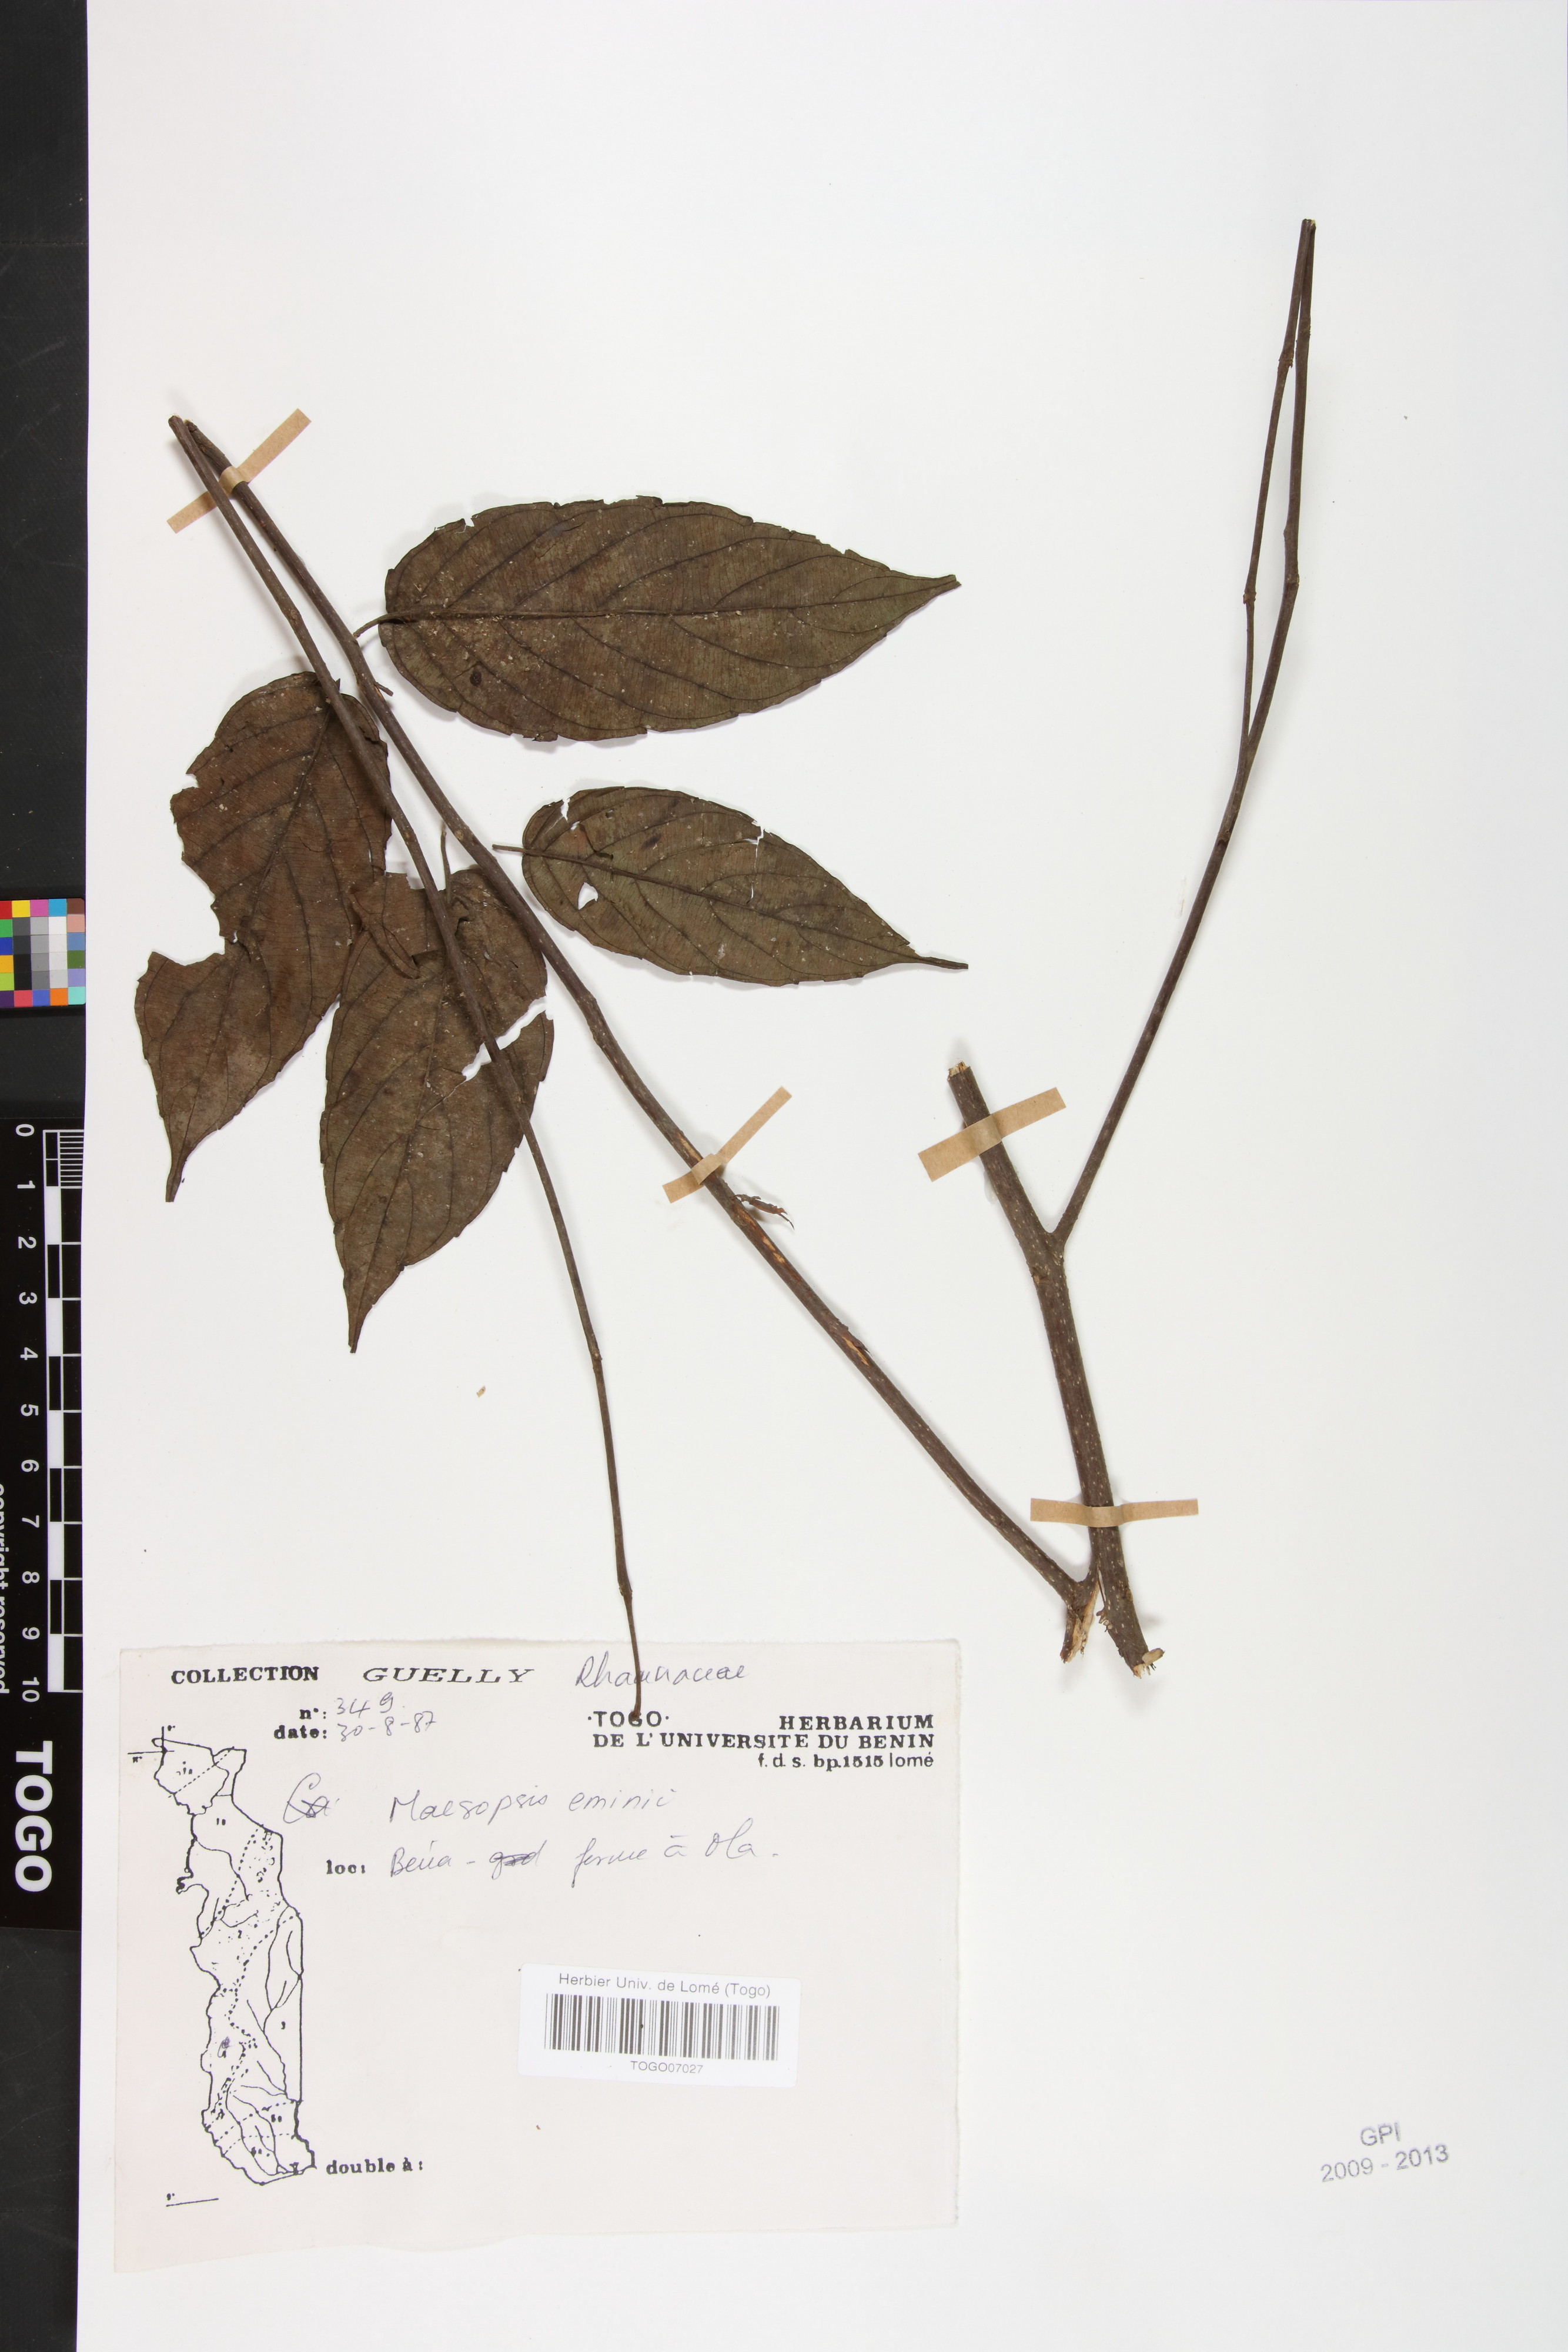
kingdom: Plantae
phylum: Tracheophyta
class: Magnoliopsida
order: Rosales
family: Rhamnaceae
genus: Maesopsis
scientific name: Maesopsis eminii
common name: Umbrella tree
